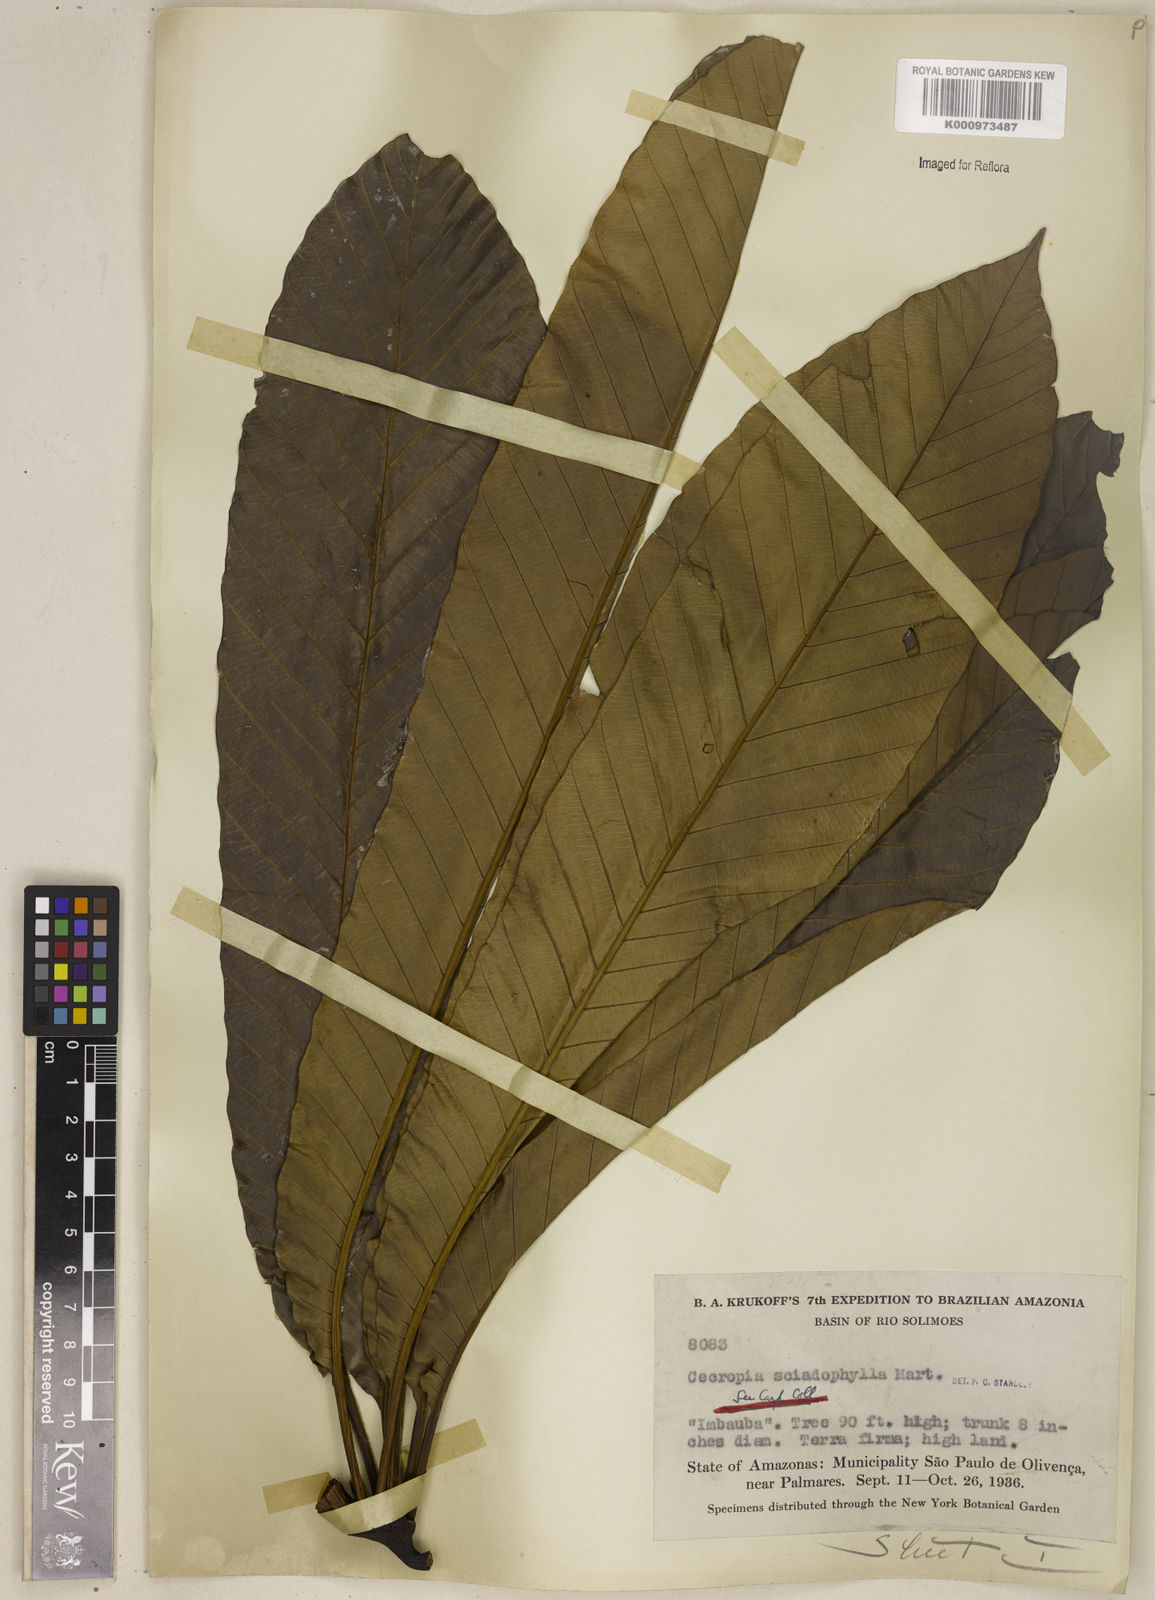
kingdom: Plantae
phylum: Tracheophyta
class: Magnoliopsida
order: Rosales
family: Urticaceae
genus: Cecropia
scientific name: Cecropia sciadophylla
